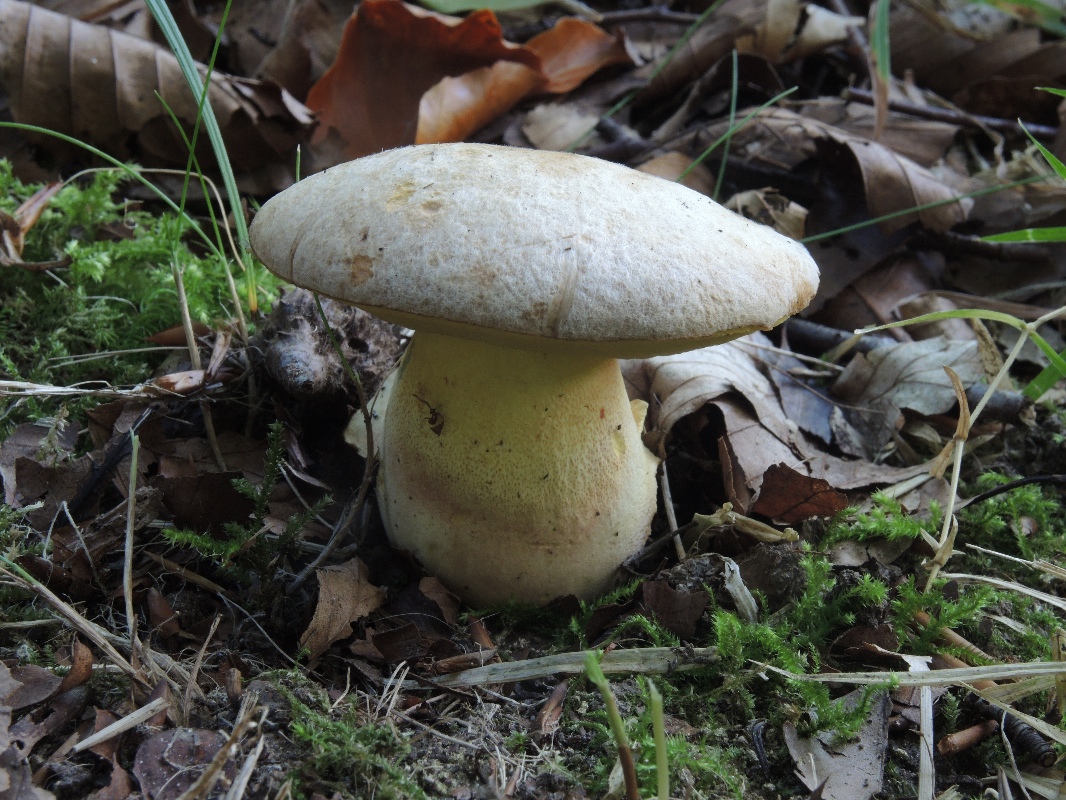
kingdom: Fungi
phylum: Basidiomycota
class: Agaricomycetes
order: Boletales
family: Boletaceae
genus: Butyriboletus
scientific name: Butyriboletus fechtneri
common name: sølvskinnende rørhat
